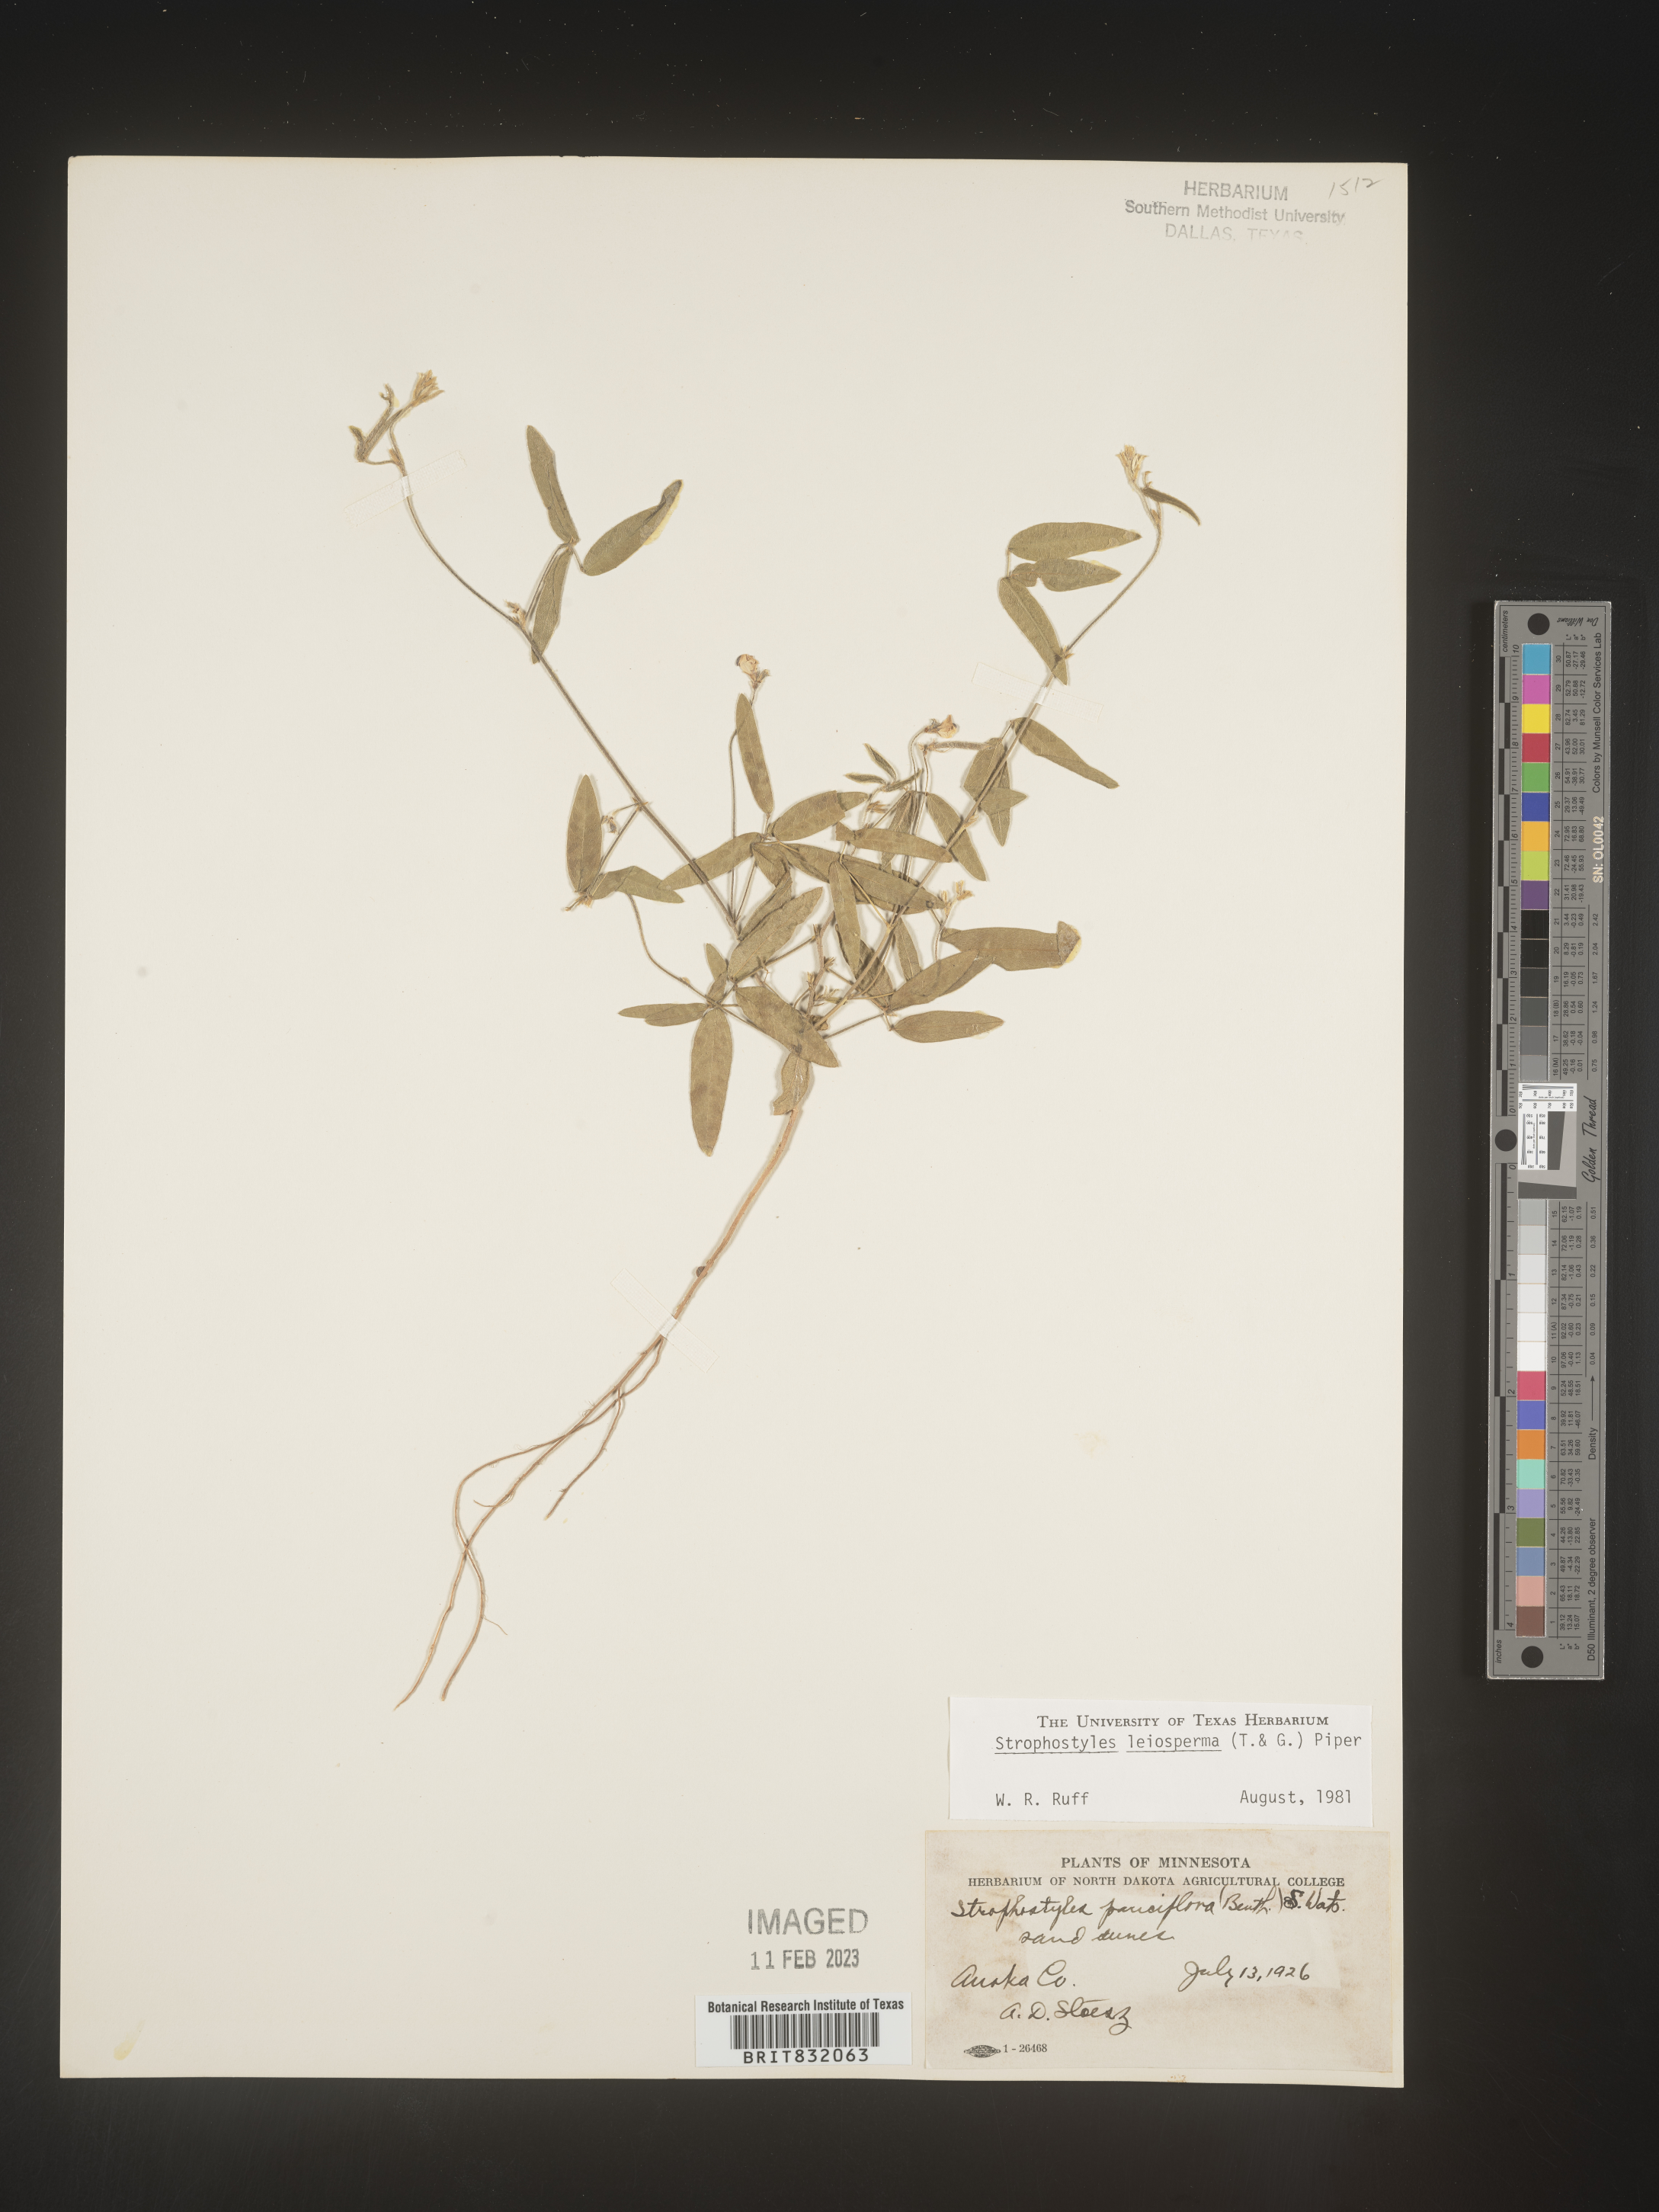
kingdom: Plantae
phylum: Tracheophyta
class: Magnoliopsida
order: Fabales
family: Fabaceae
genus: Strophostyles
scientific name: Strophostyles leiosperma
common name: Smooth-seed wild bean
